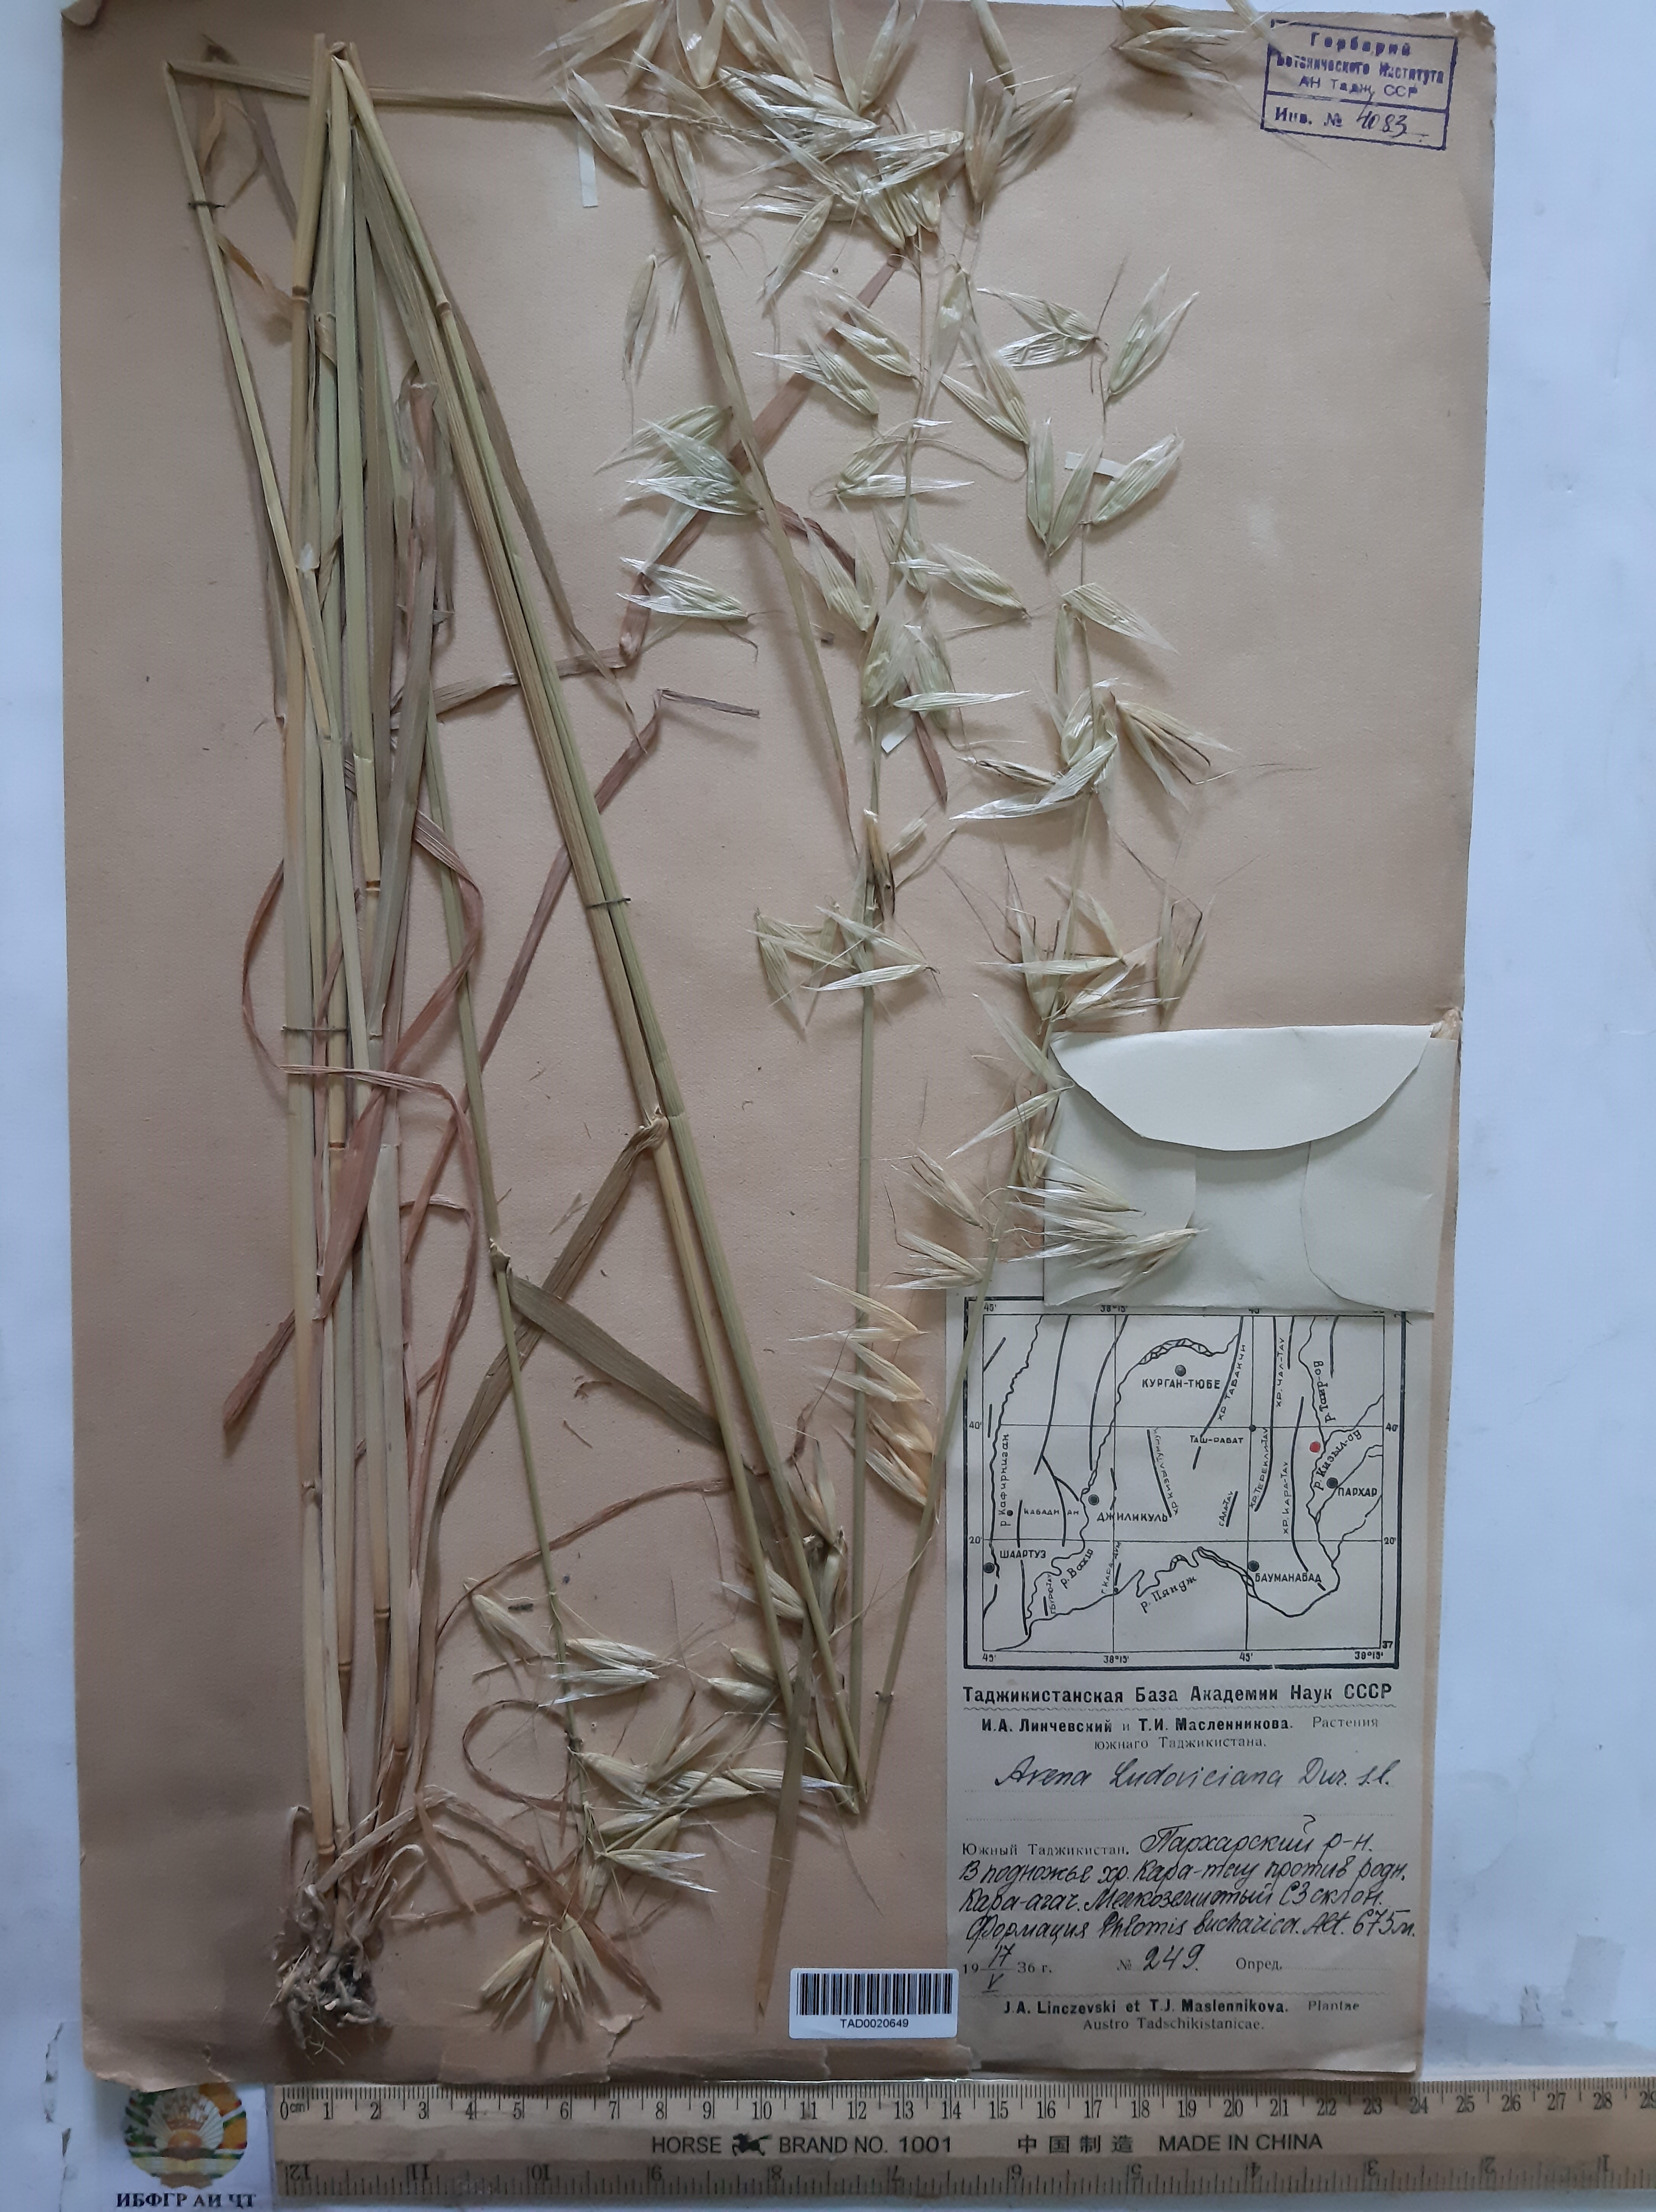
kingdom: Plantae
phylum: Tracheophyta
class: Liliopsida
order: Poales
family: Poaceae
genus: Avena
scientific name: Avena sterilis
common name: Animated oat
